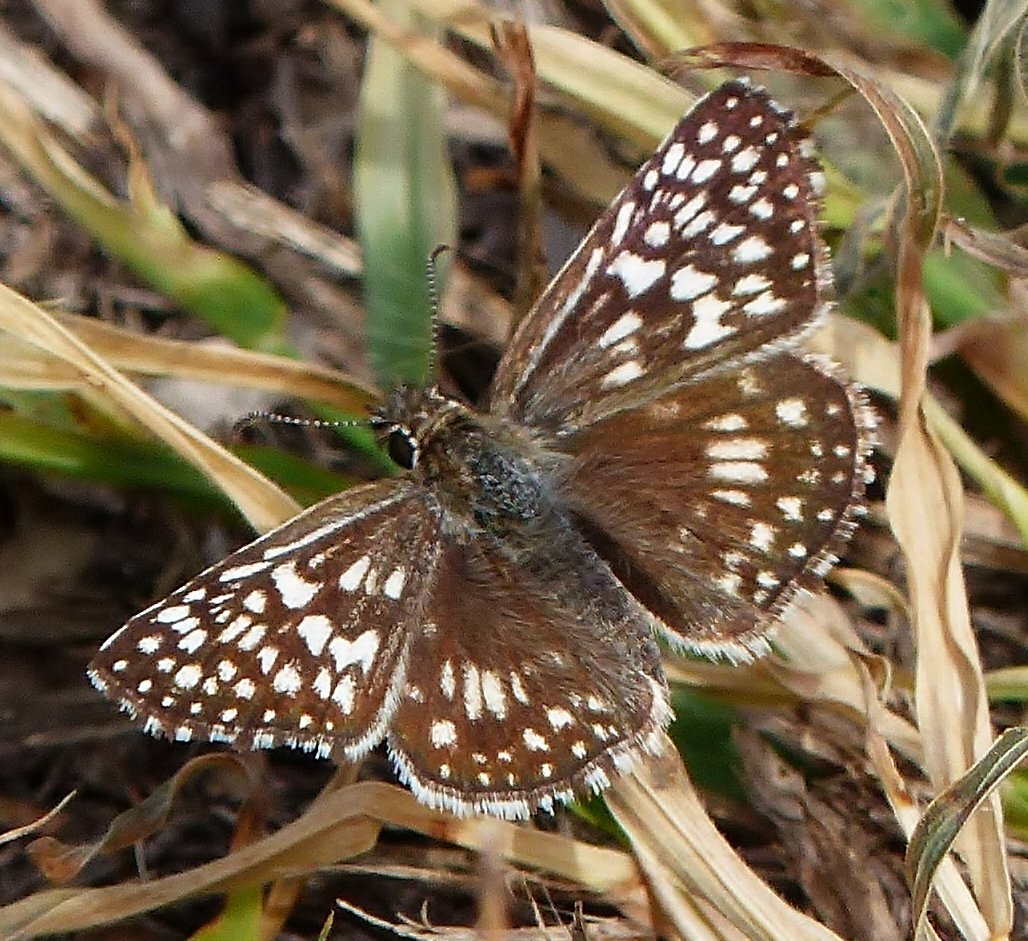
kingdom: Animalia
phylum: Arthropoda
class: Insecta
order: Lepidoptera
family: Hesperiidae
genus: Pyrgus
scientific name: Pyrgus oileus
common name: Desert Checkered-Skipper
